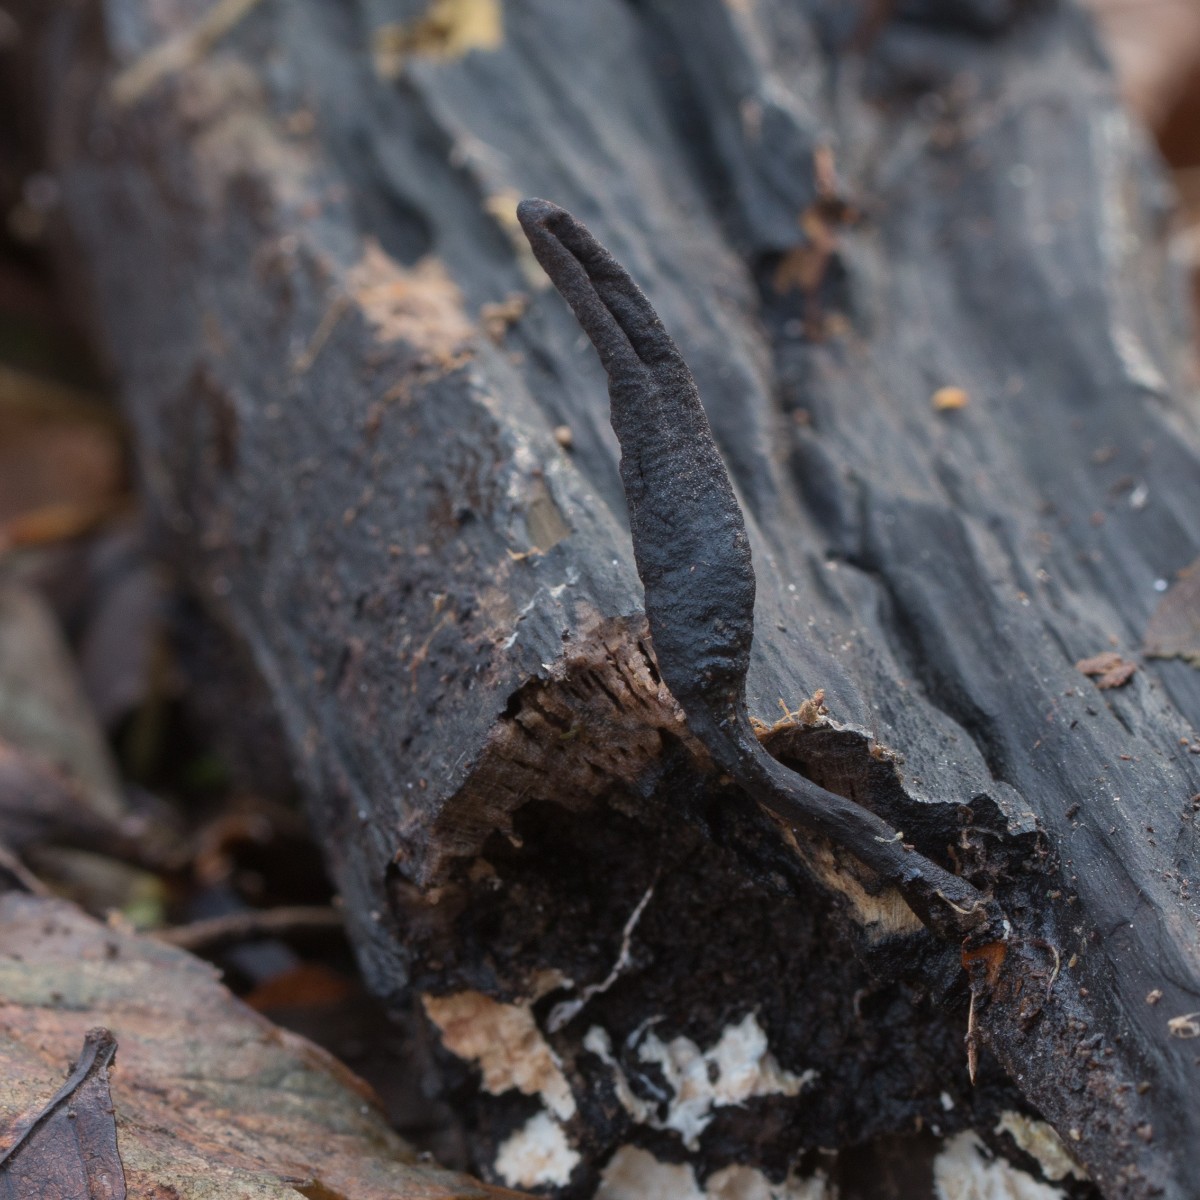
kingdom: Fungi
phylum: Ascomycota
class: Sordariomycetes
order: Xylariales
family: Xylariaceae
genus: Xylaria
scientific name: Xylaria longipes
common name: slank stødsvamp
